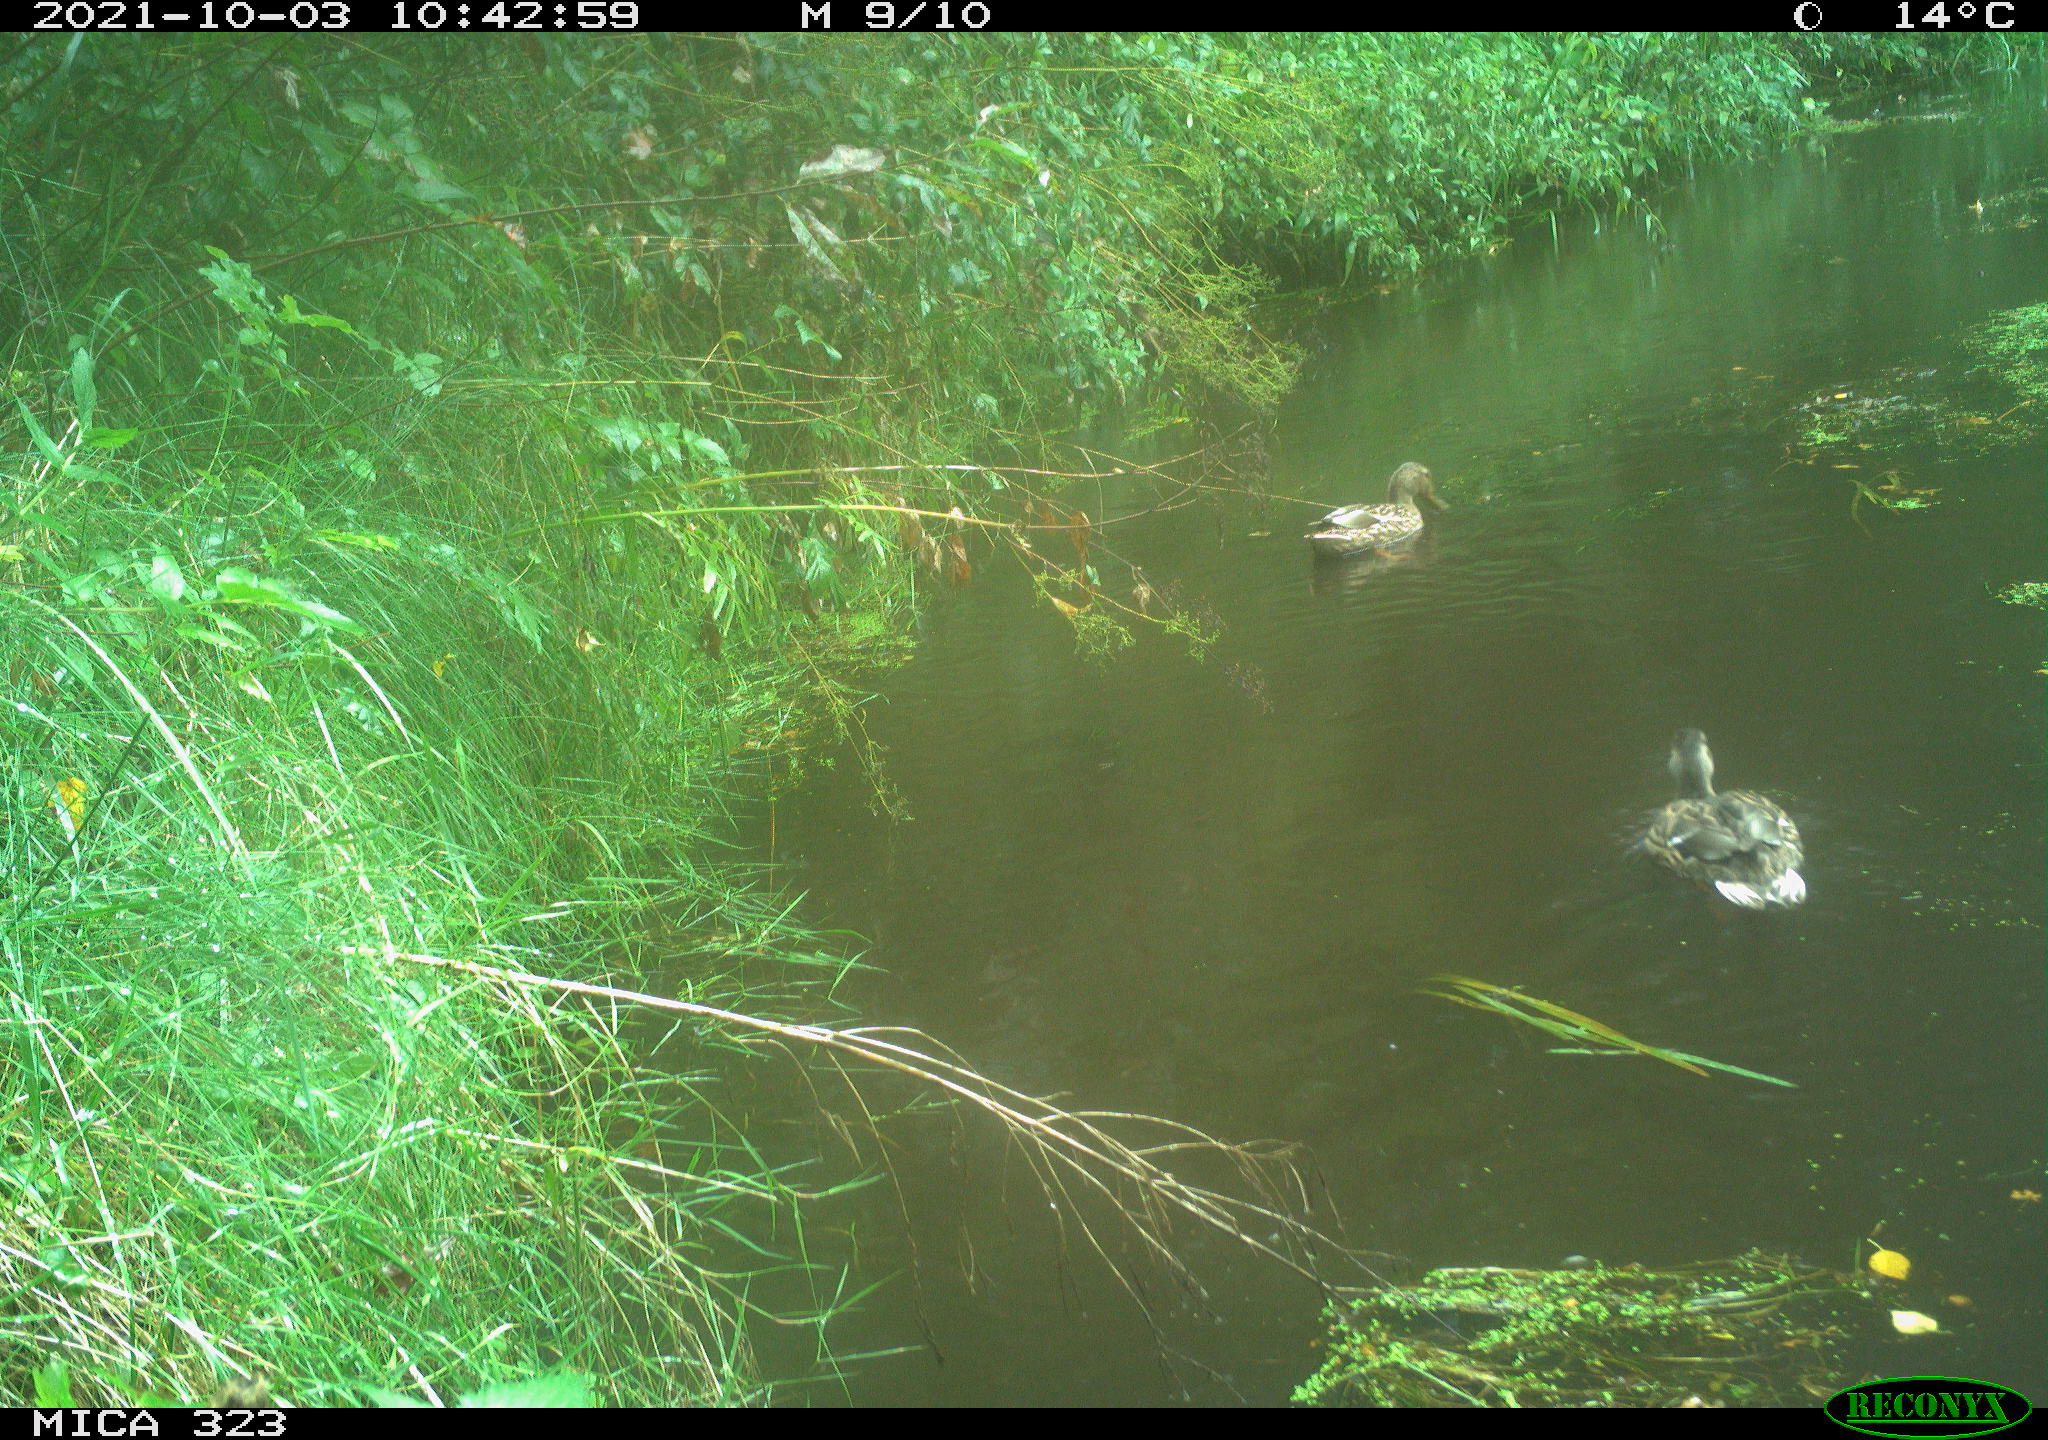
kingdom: Animalia
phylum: Chordata
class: Aves
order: Anseriformes
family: Anatidae
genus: Anas
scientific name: Anas platyrhynchos
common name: Mallard
